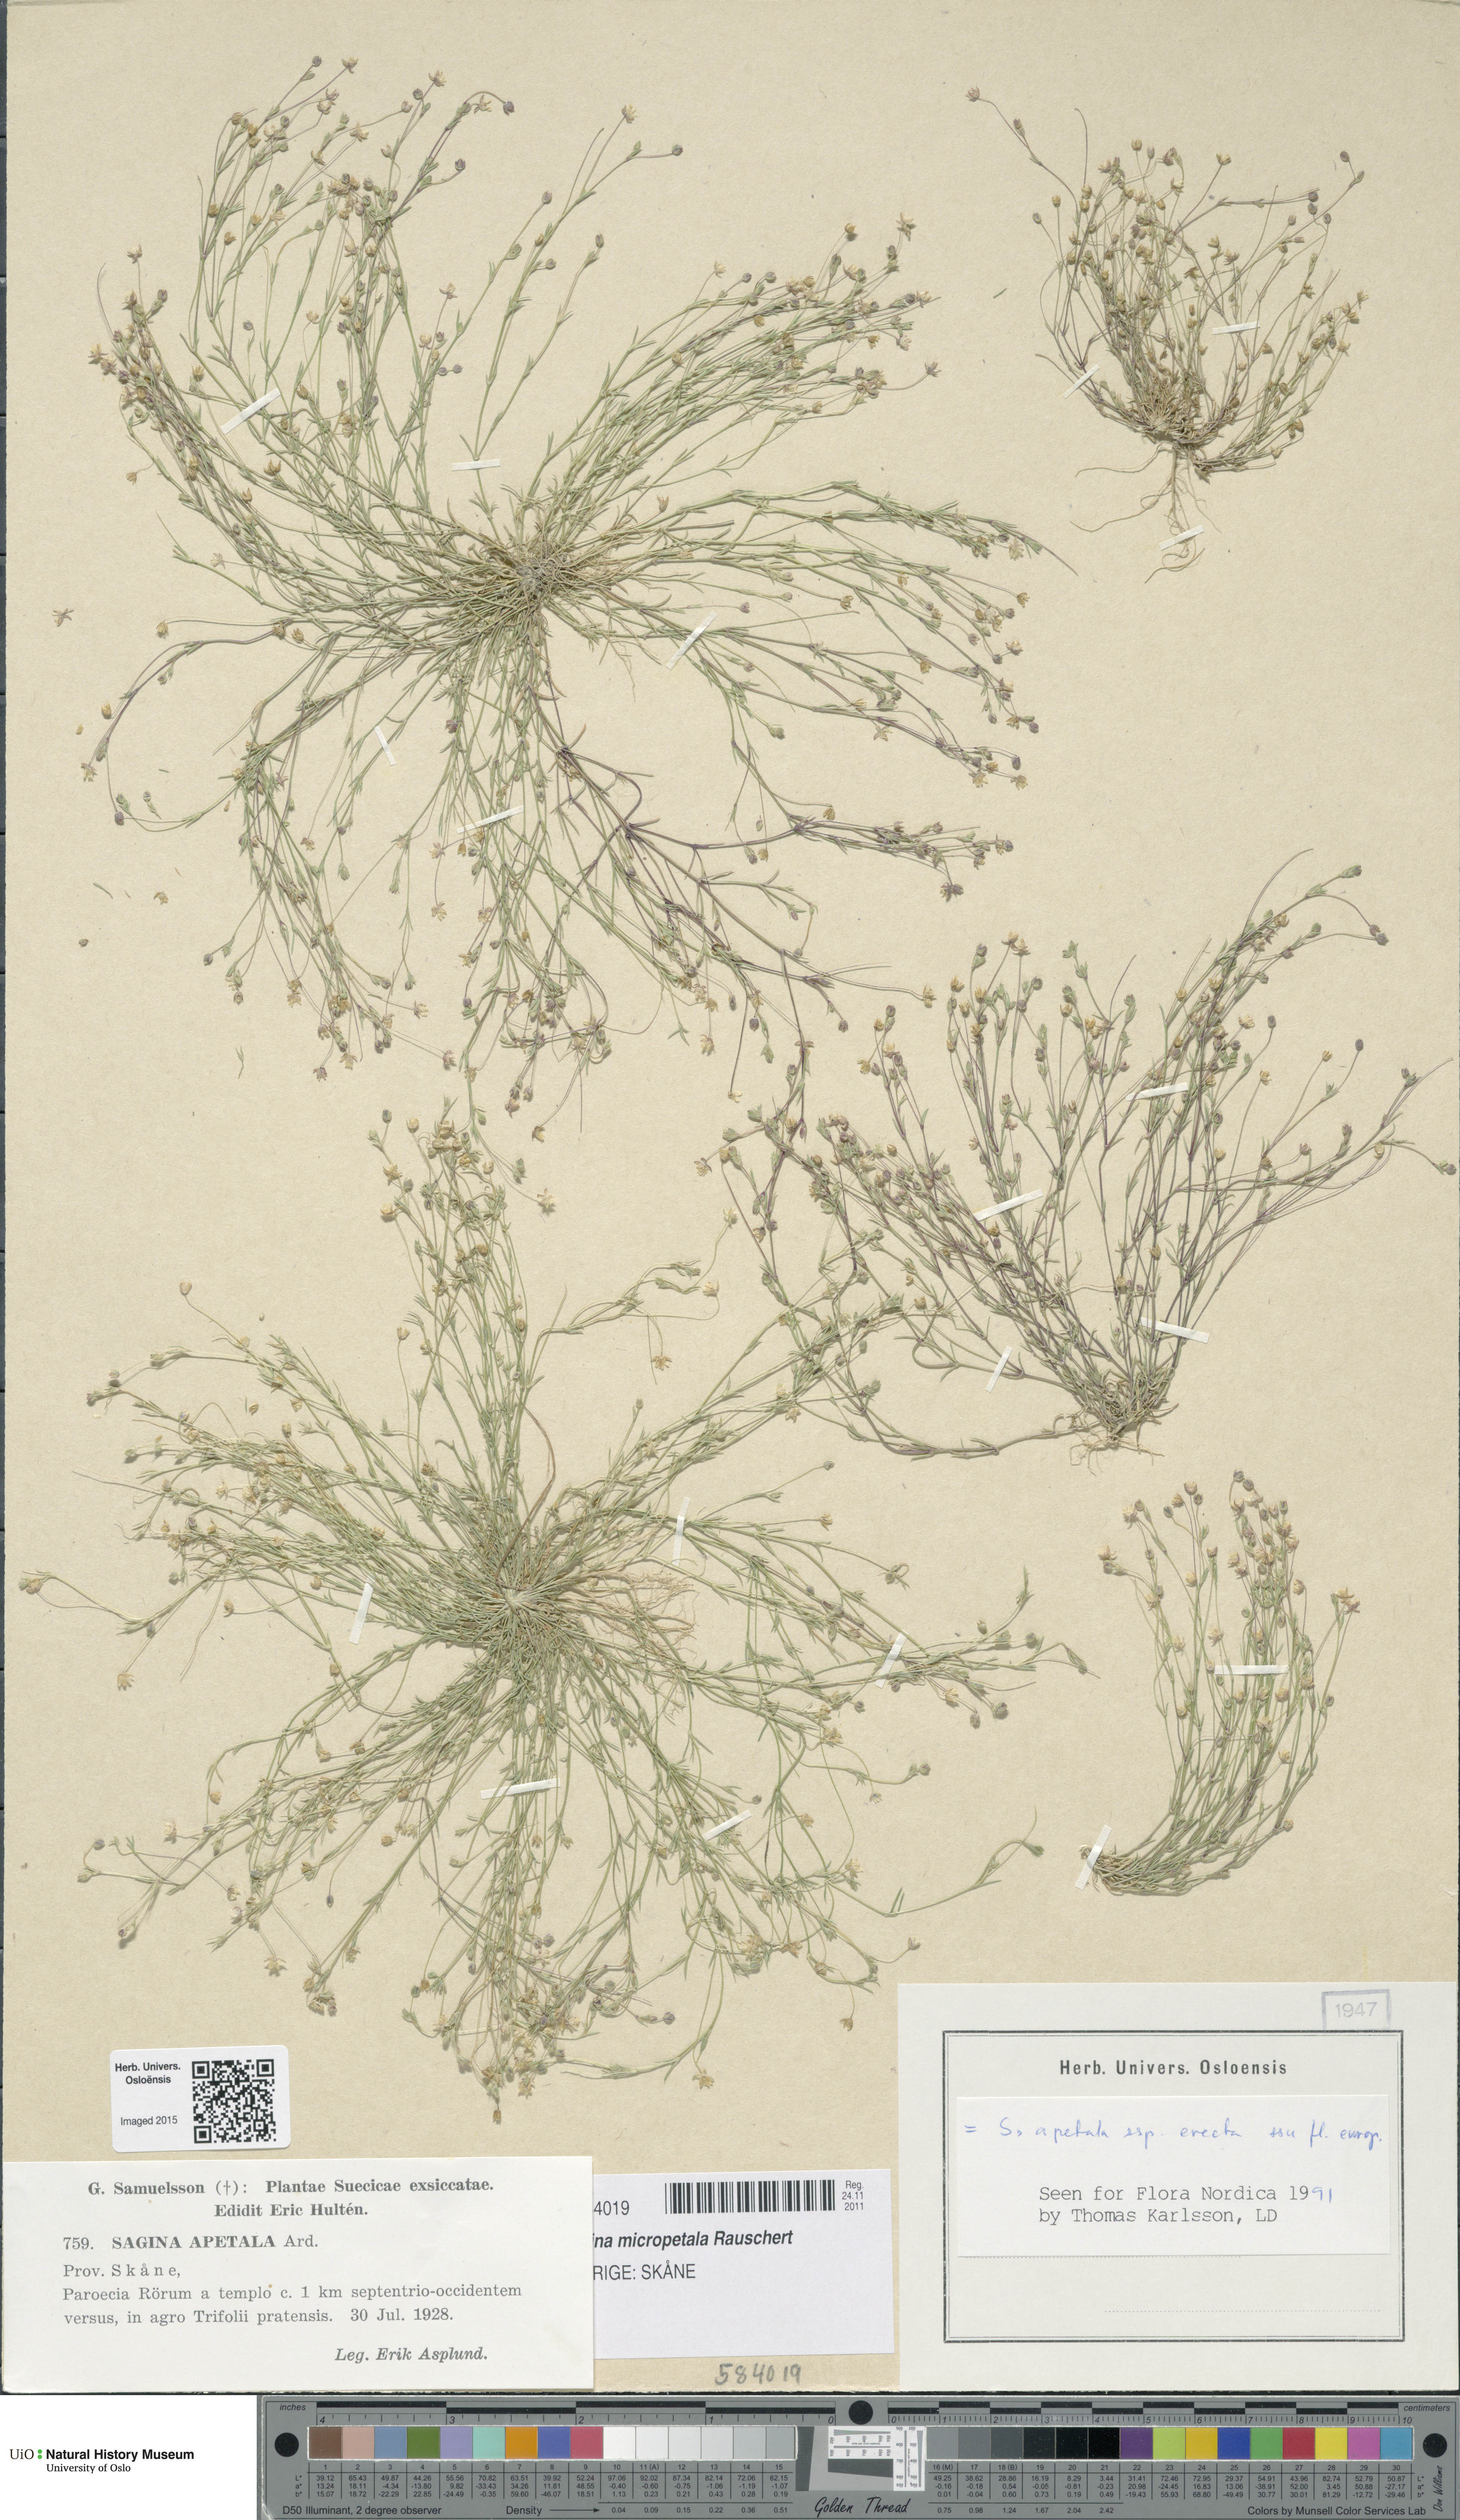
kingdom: Plantae
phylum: Tracheophyta
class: Magnoliopsida
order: Caryophyllales
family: Caryophyllaceae
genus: Sagina
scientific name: Sagina micropetala
